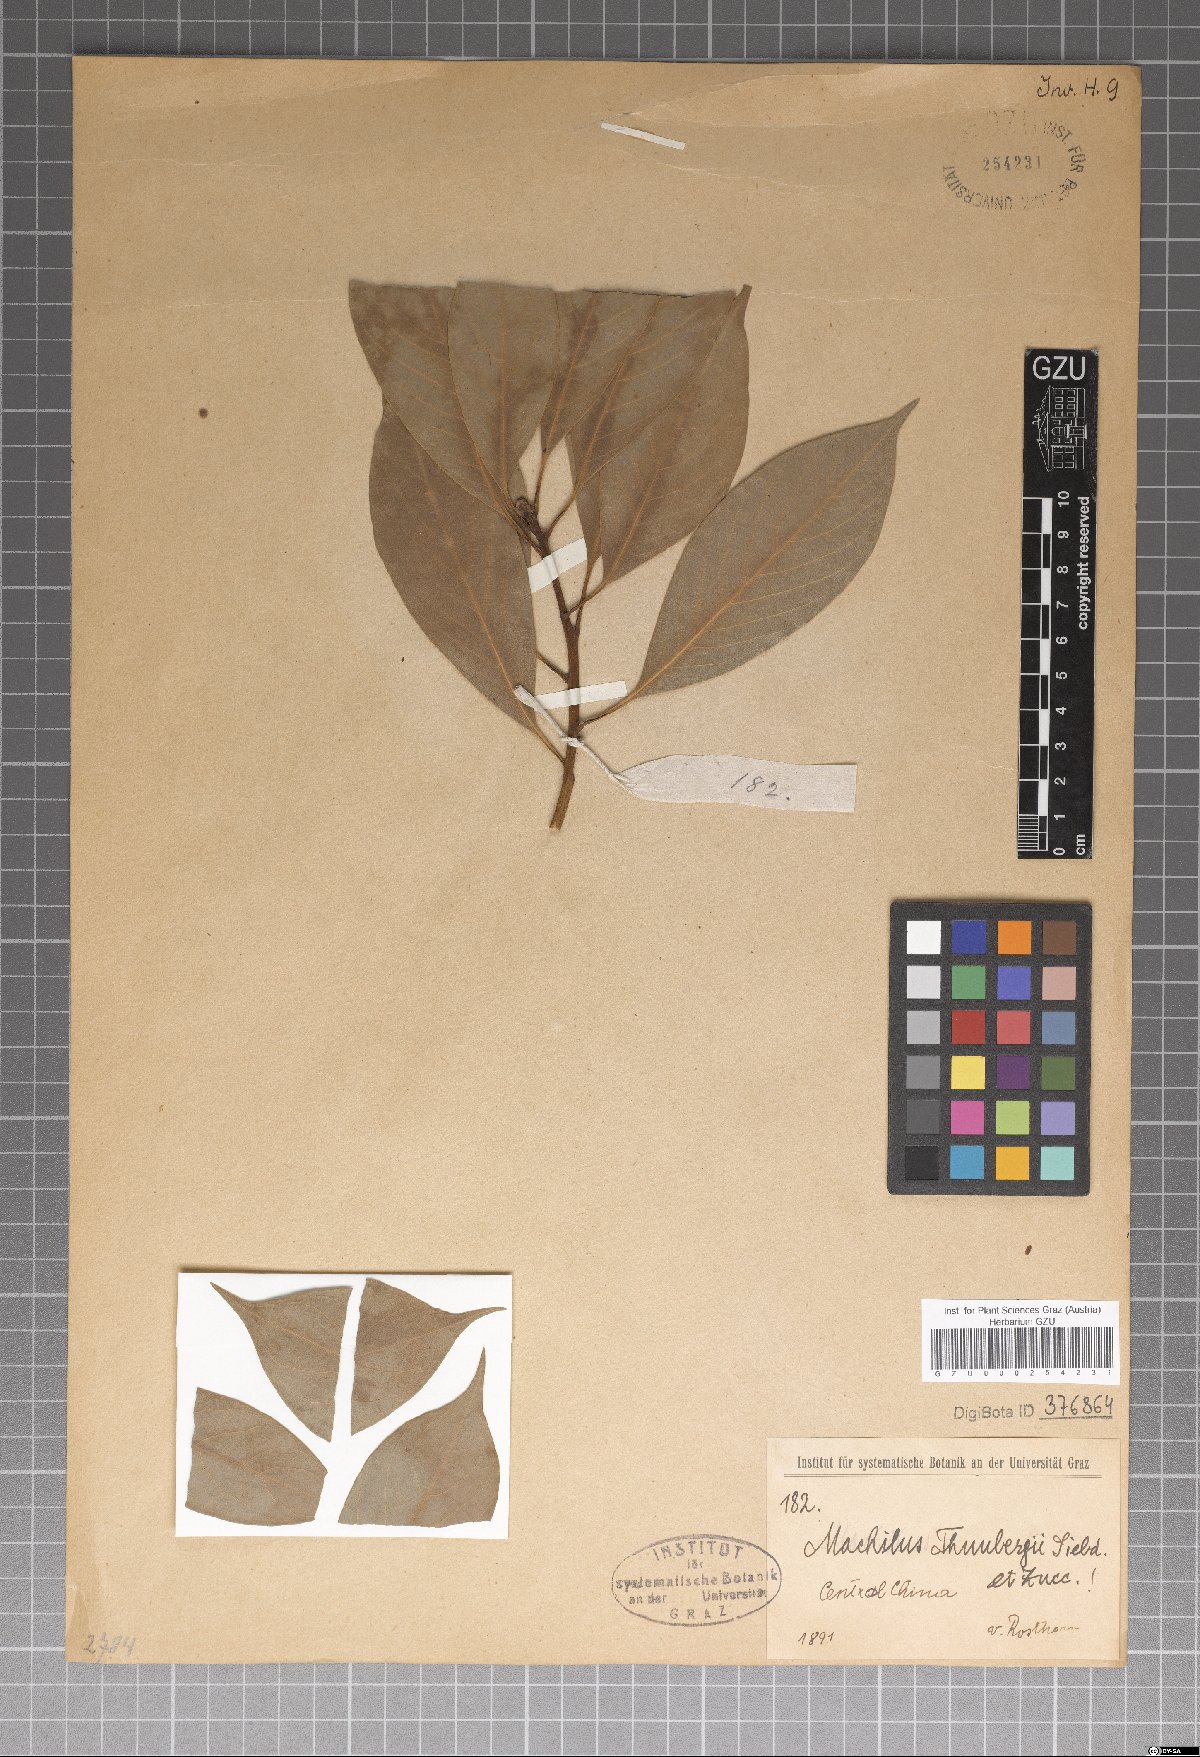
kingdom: Plantae
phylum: Tracheophyta
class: Magnoliopsida
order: Laurales
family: Lauraceae
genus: Machilus
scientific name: Machilus thunbergii
